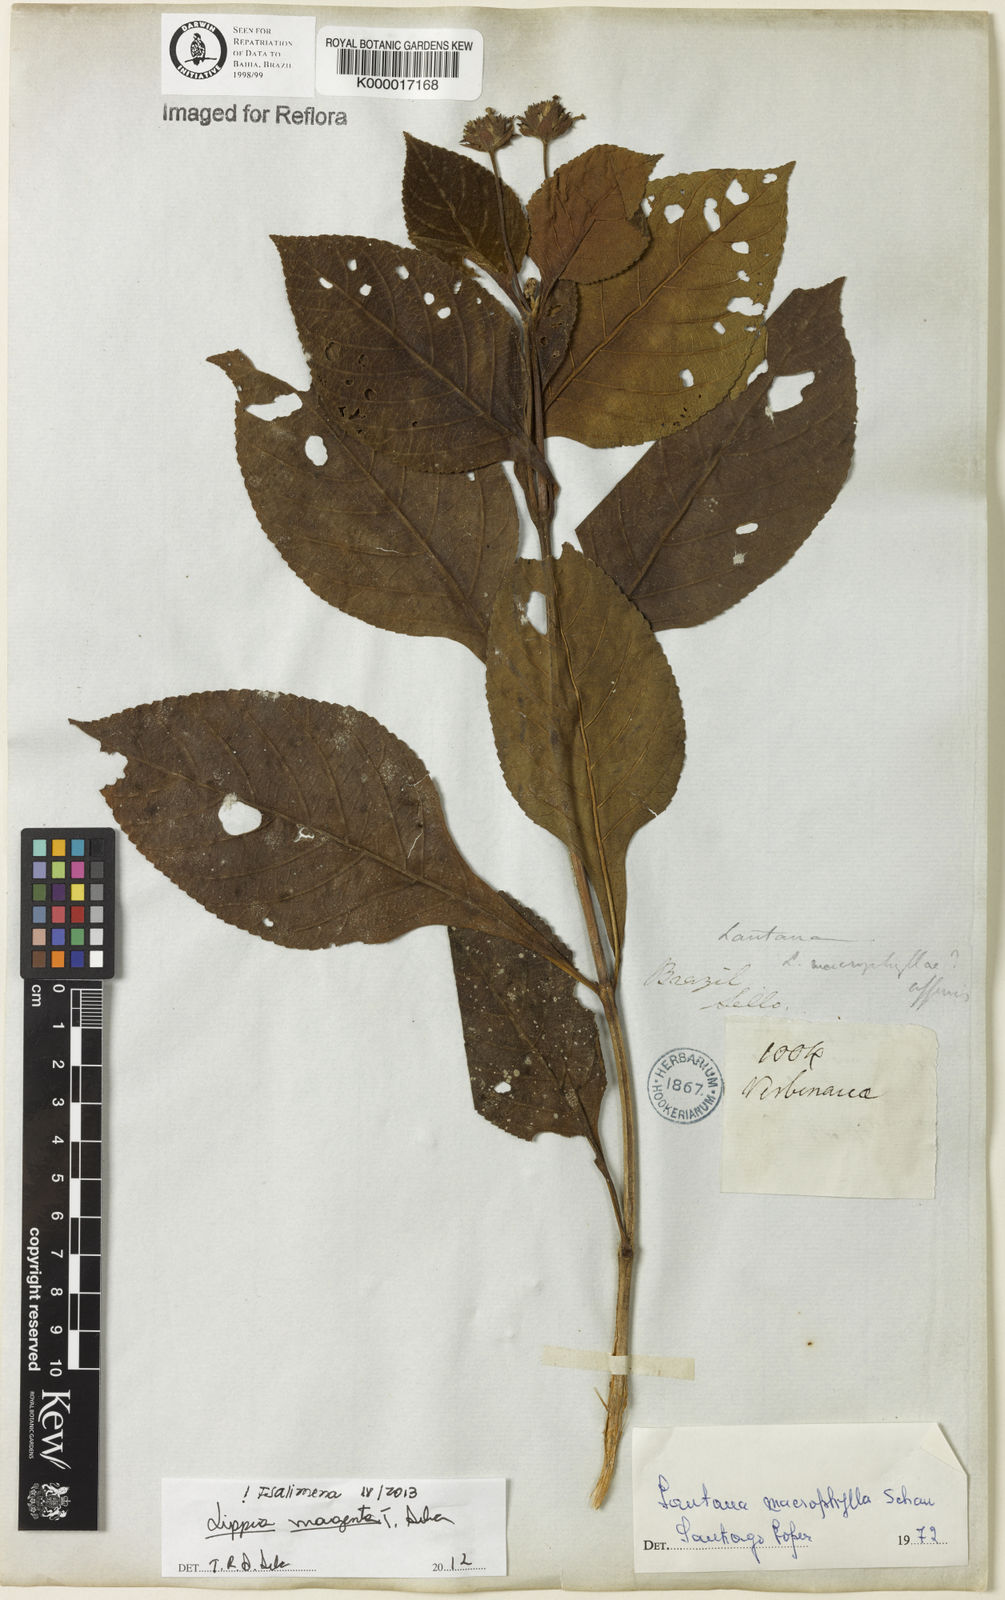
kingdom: Plantae
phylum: Tracheophyta
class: Magnoliopsida
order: Lamiales
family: Verbenaceae
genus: Lippia
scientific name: Lippia
